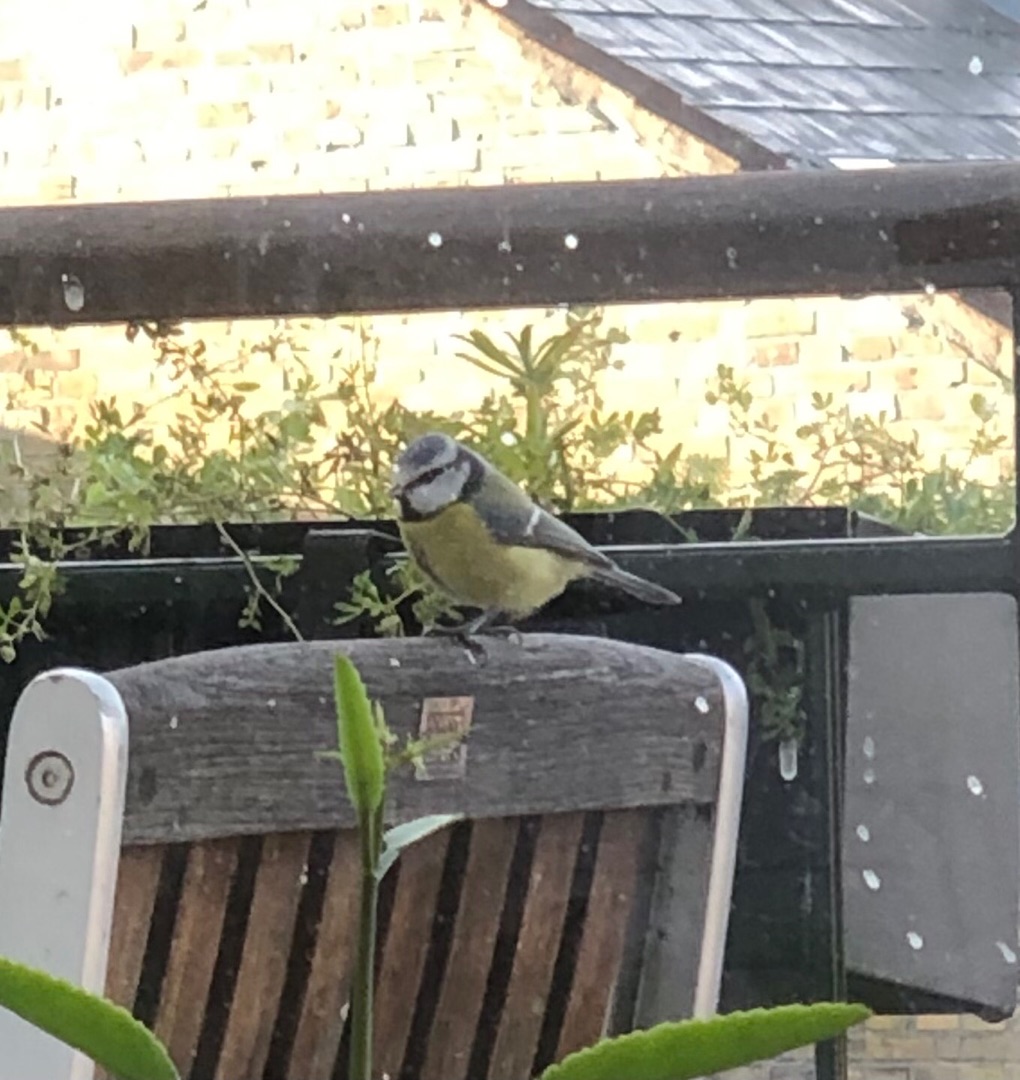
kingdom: Animalia
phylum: Chordata
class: Aves
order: Passeriformes
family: Paridae
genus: Cyanistes
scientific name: Cyanistes caeruleus
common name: Blåmejse
